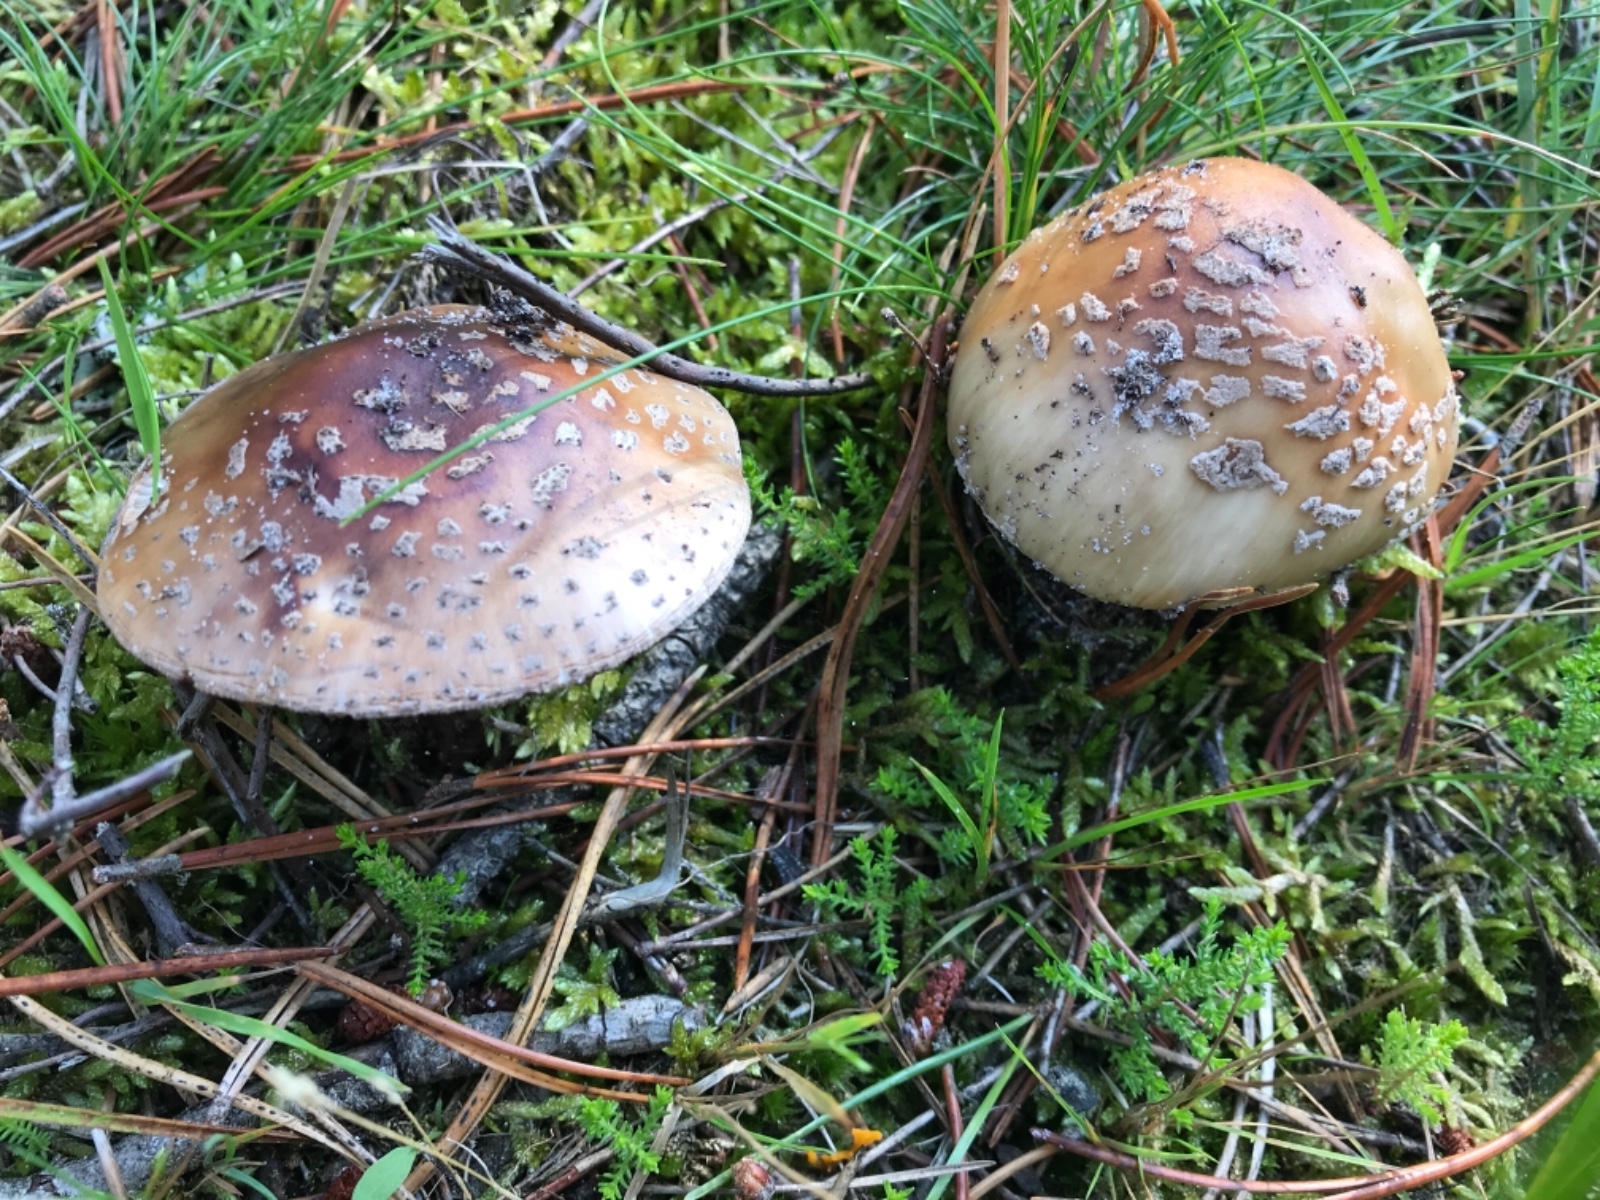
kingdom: Fungi
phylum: Basidiomycota
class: Agaricomycetes
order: Agaricales
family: Amanitaceae
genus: Amanita
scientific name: Amanita rubescens
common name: rødmende fluesvamp
